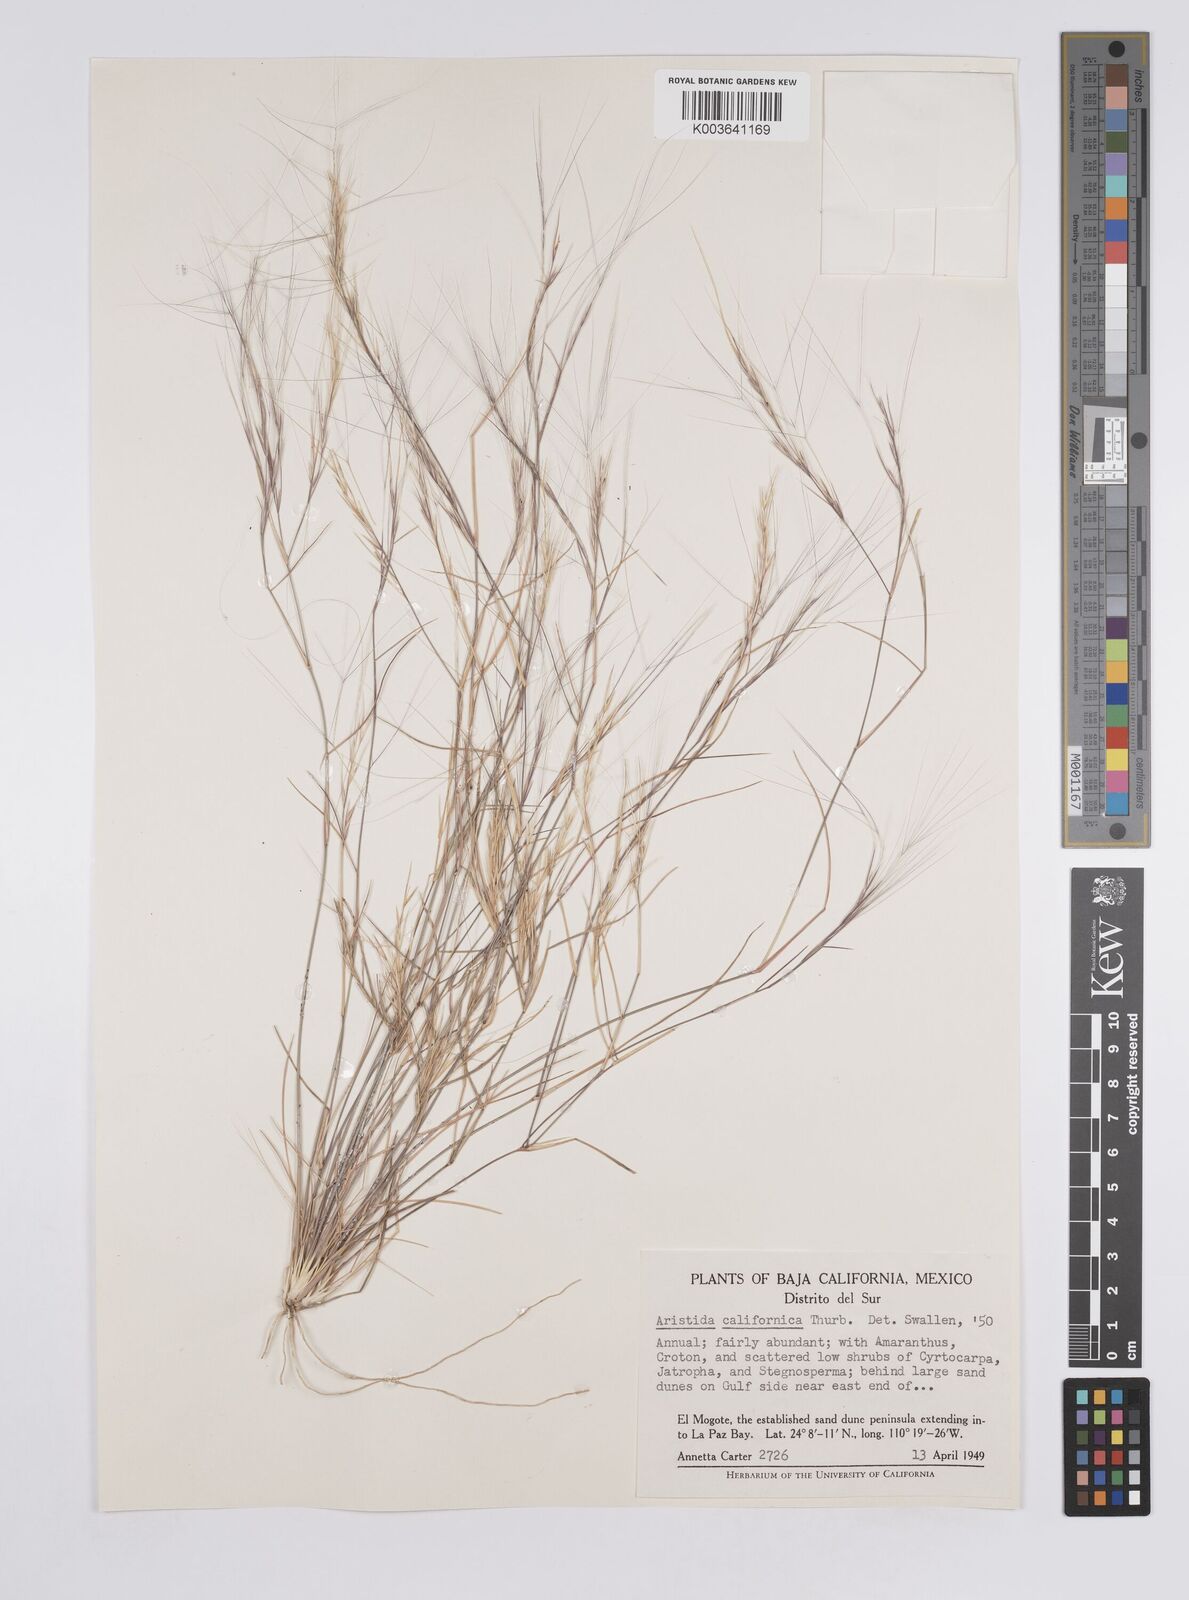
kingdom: Plantae
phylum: Tracheophyta
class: Liliopsida
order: Poales
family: Poaceae
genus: Aristida
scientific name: Aristida californica
